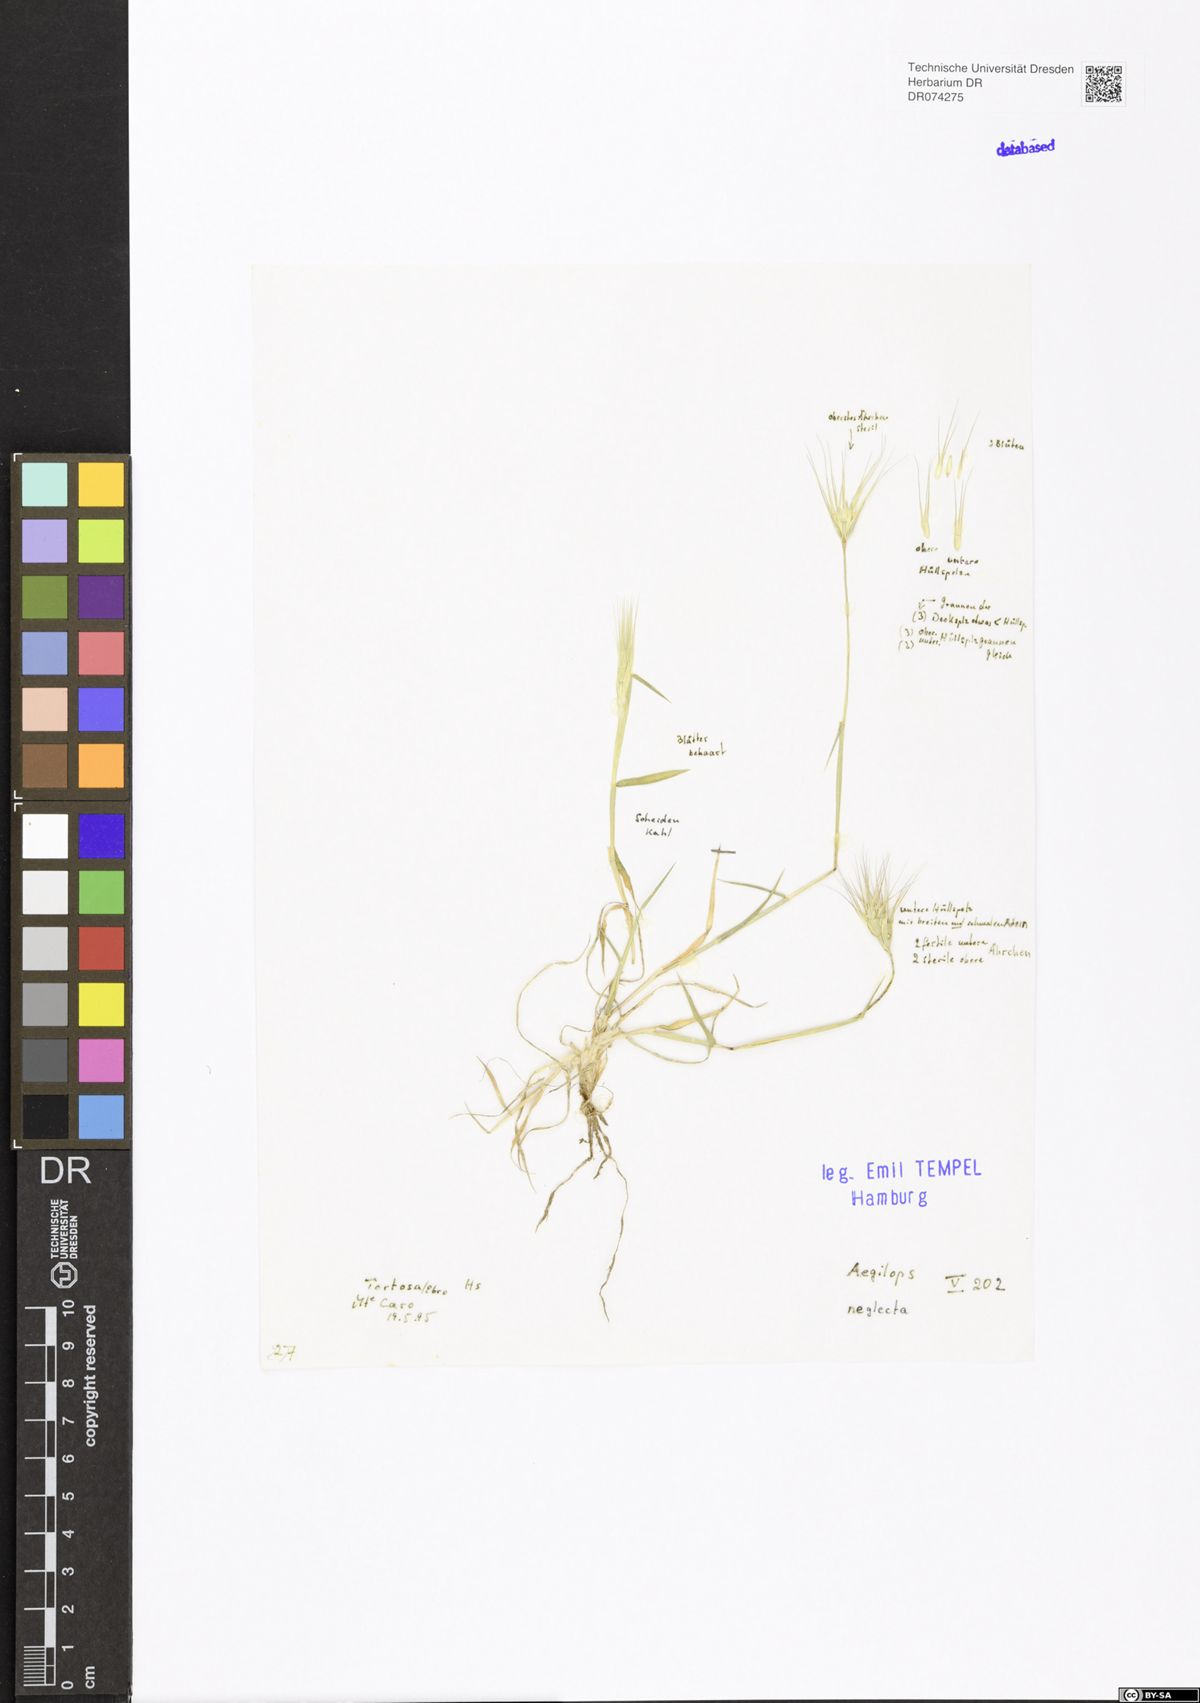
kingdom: Plantae
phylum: Tracheophyta
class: Liliopsida
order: Poales
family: Poaceae
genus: Aegilops
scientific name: Aegilops neglecta
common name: Three-awn goat grass
